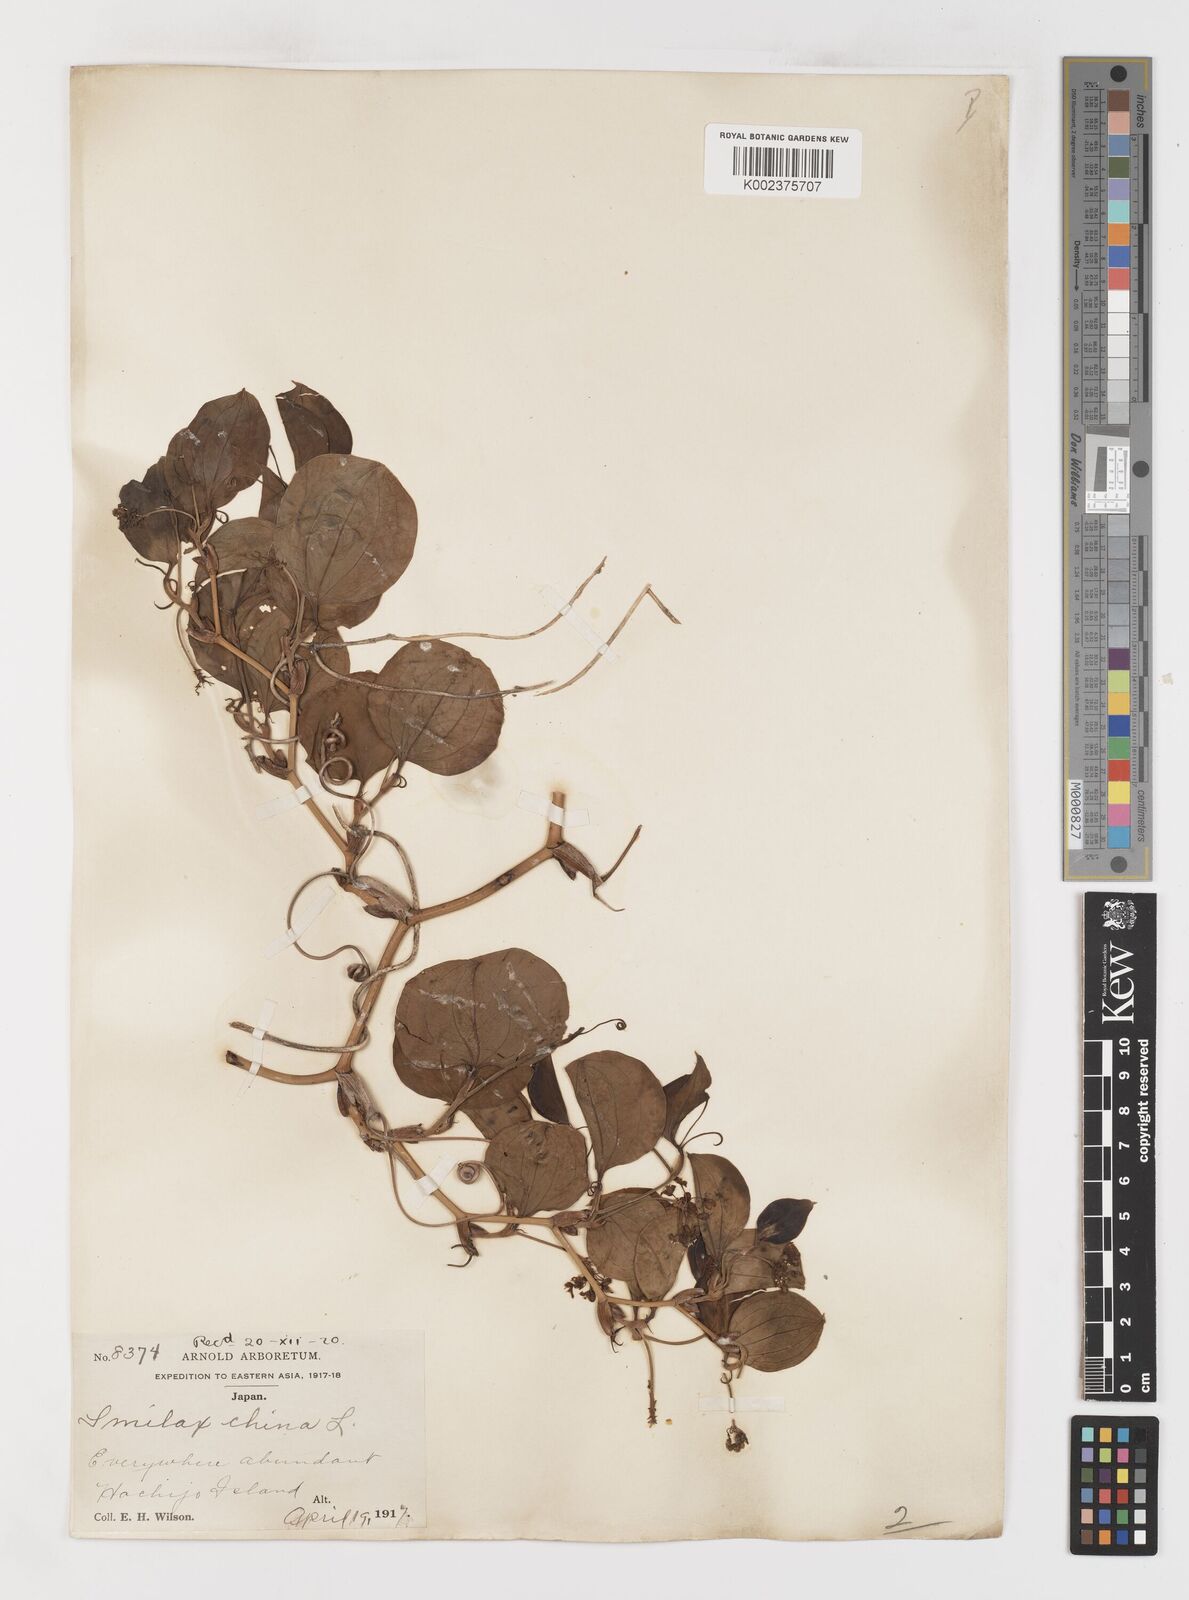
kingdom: Plantae
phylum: Tracheophyta
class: Liliopsida
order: Liliales
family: Smilacaceae
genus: Smilax
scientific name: Smilax china
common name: Chinaroot
